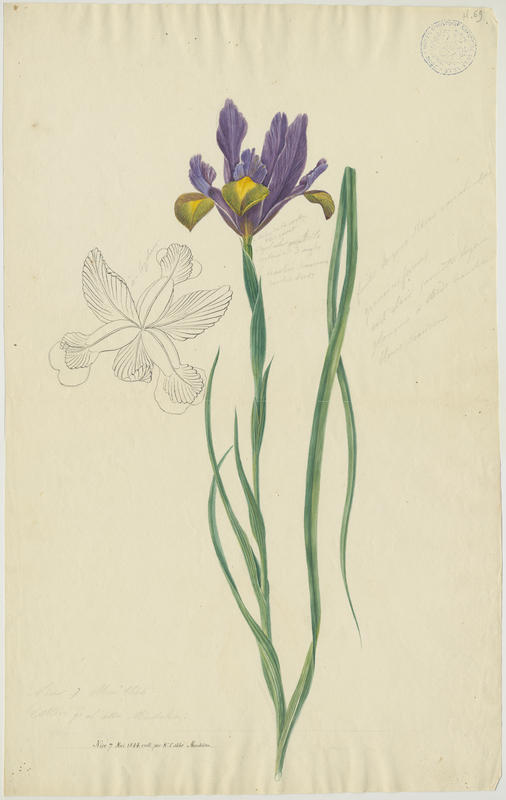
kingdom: Plantae
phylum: Tracheophyta
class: Liliopsida
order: Asparagales
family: Iridaceae
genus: Iris
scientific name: Iris
